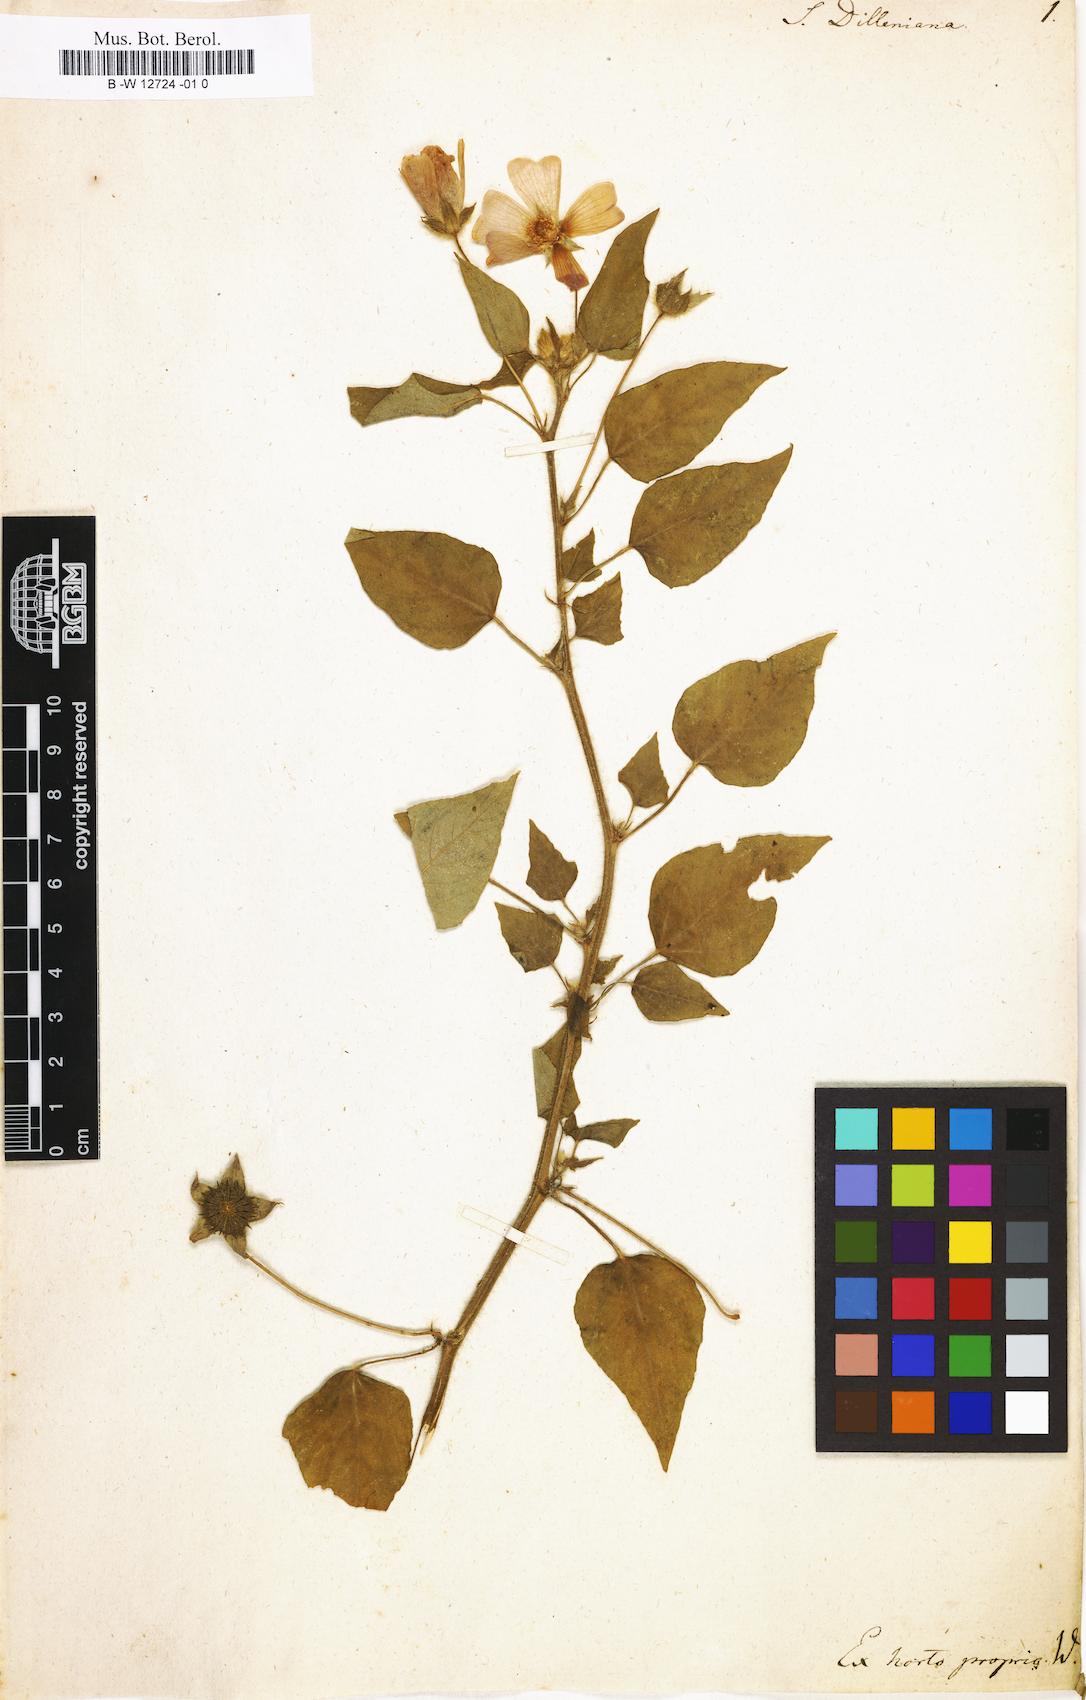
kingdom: Plantae
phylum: Tracheophyta
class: Magnoliopsida
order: Malvales
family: Malvaceae
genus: Anoda
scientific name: Anoda cristata
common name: Spurred anoda
